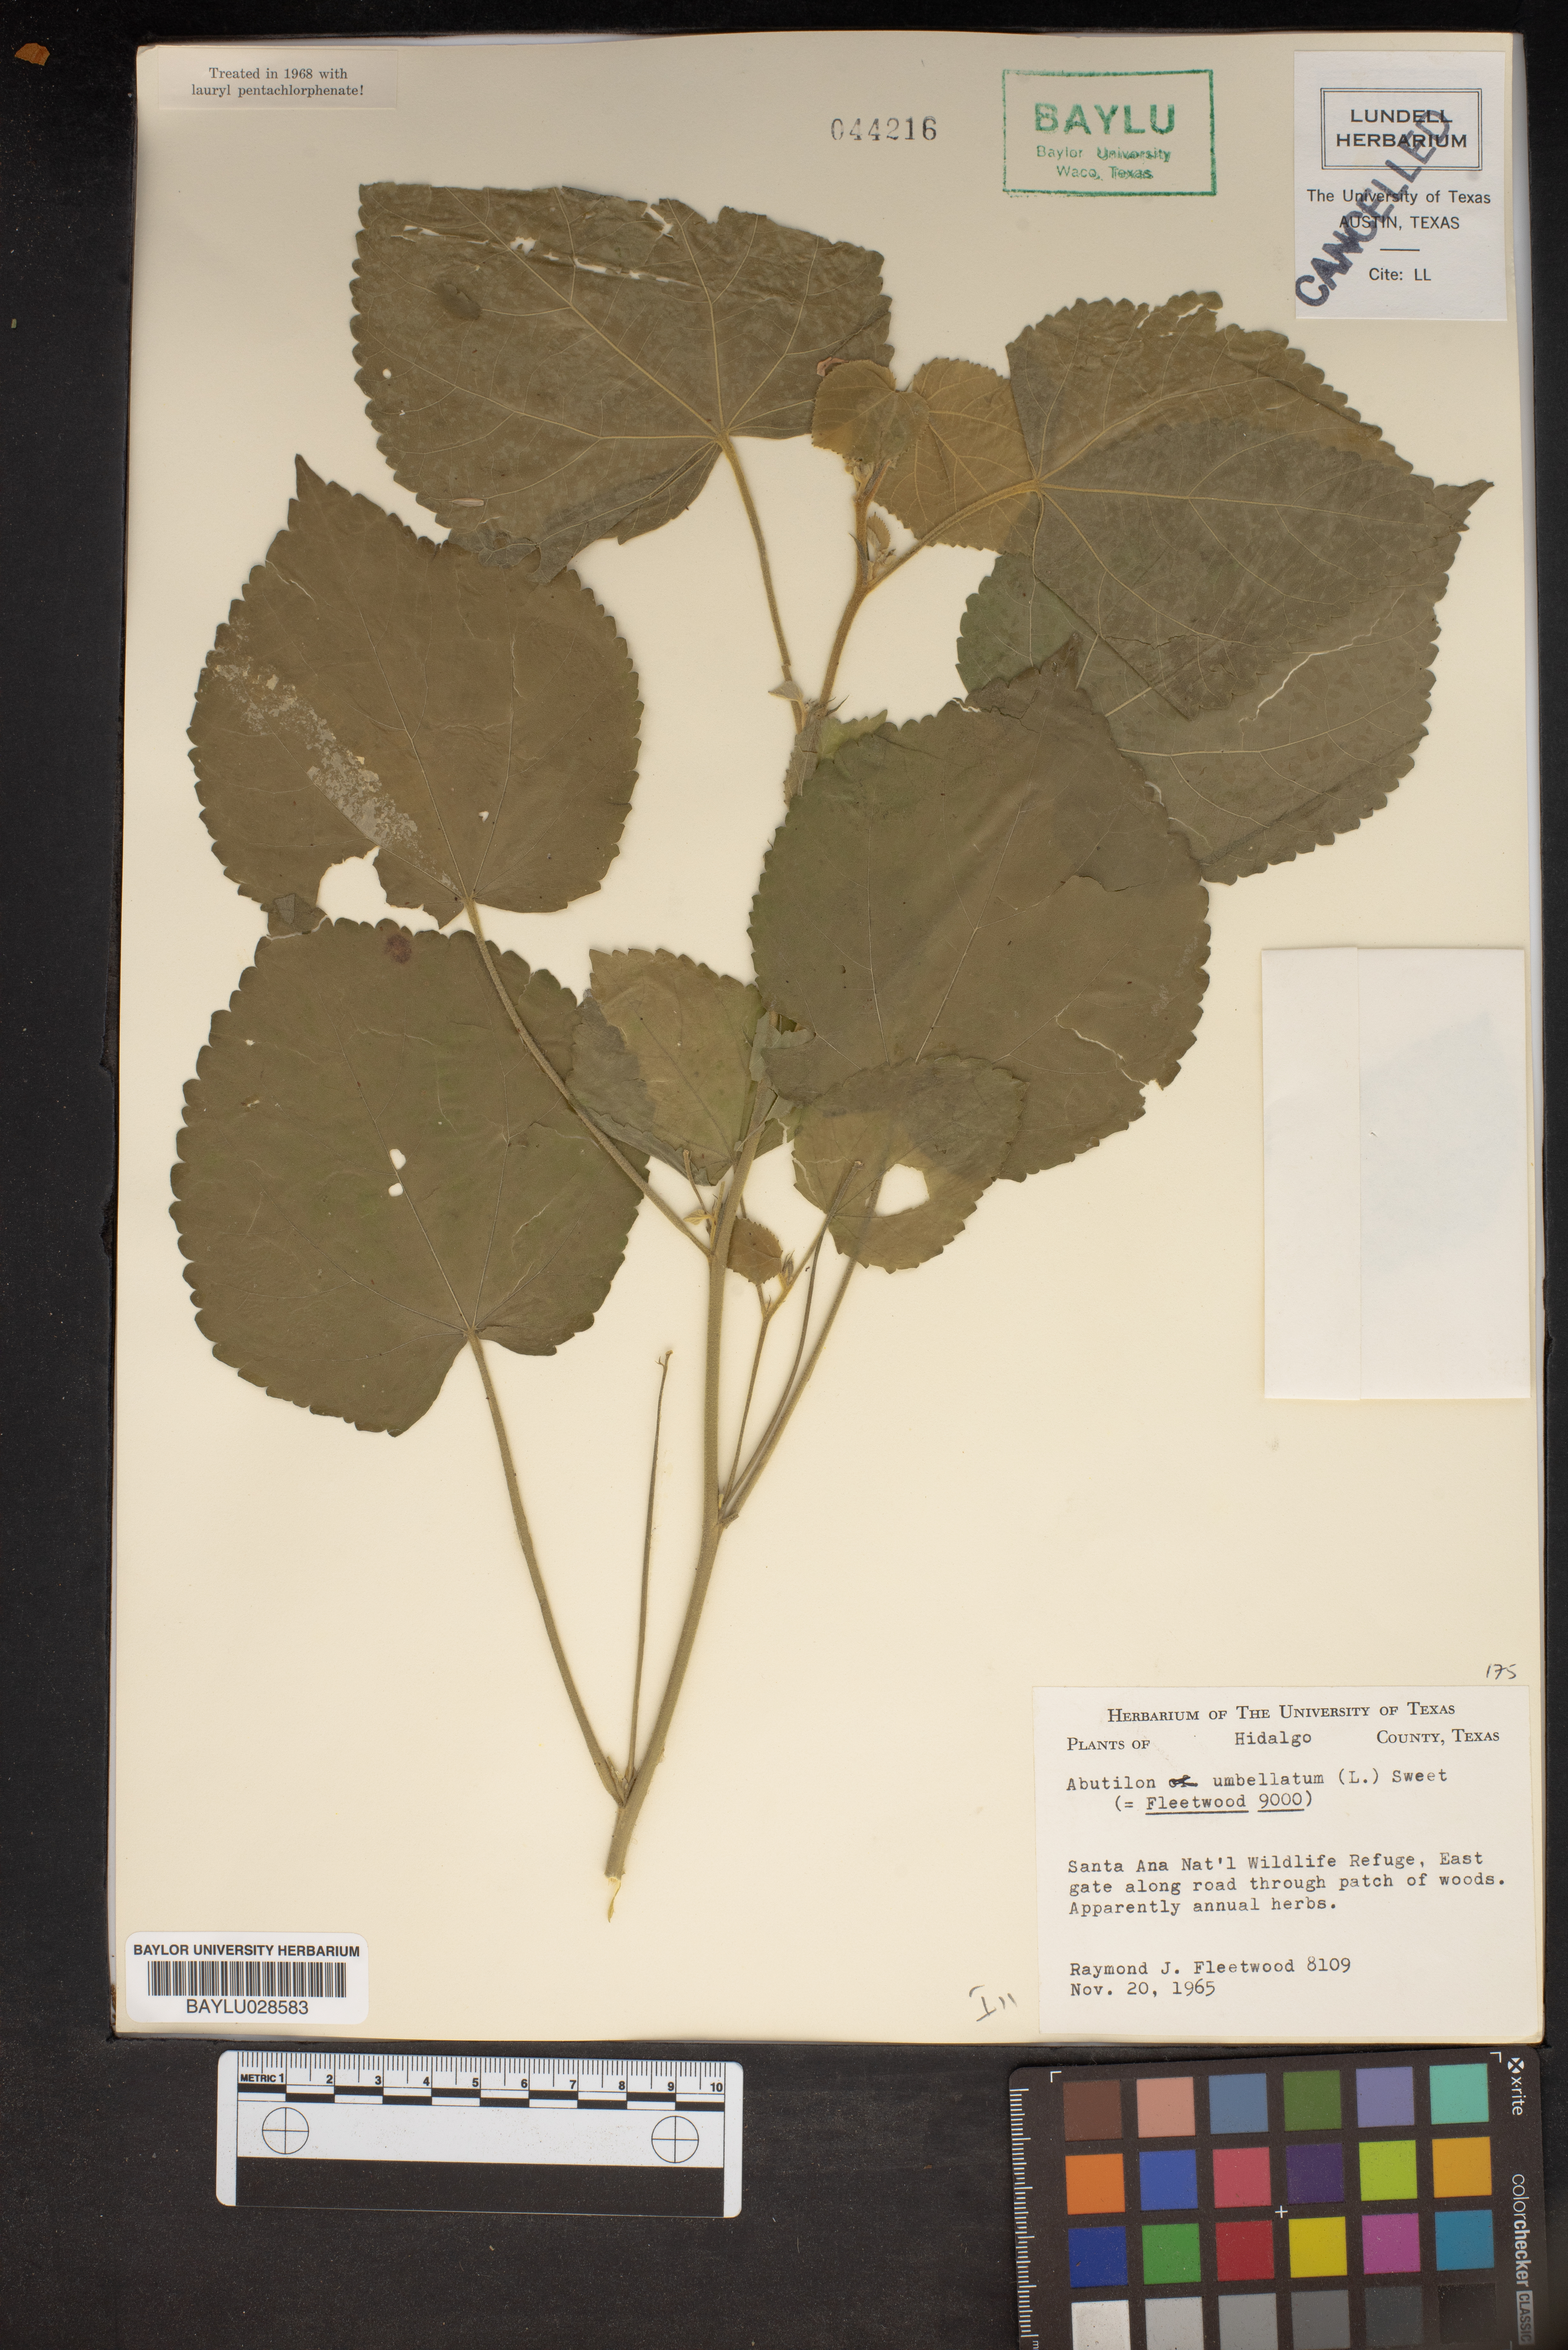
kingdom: Plantae
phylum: Tracheophyta
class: Magnoliopsida
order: Malvales
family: Malvaceae
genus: Pseudabutilon
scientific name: Pseudabutilon umbellatum
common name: Umbrella indian mallow
